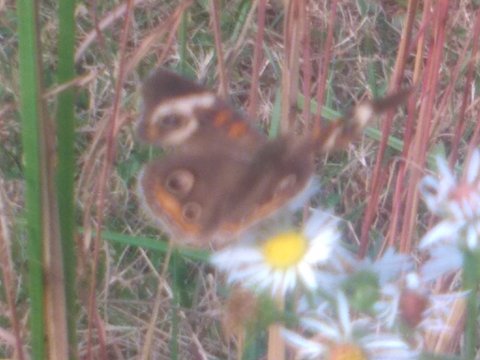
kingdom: Animalia
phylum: Arthropoda
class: Insecta
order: Lepidoptera
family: Nymphalidae
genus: Junonia
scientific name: Junonia coenia
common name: Common Buckeye
